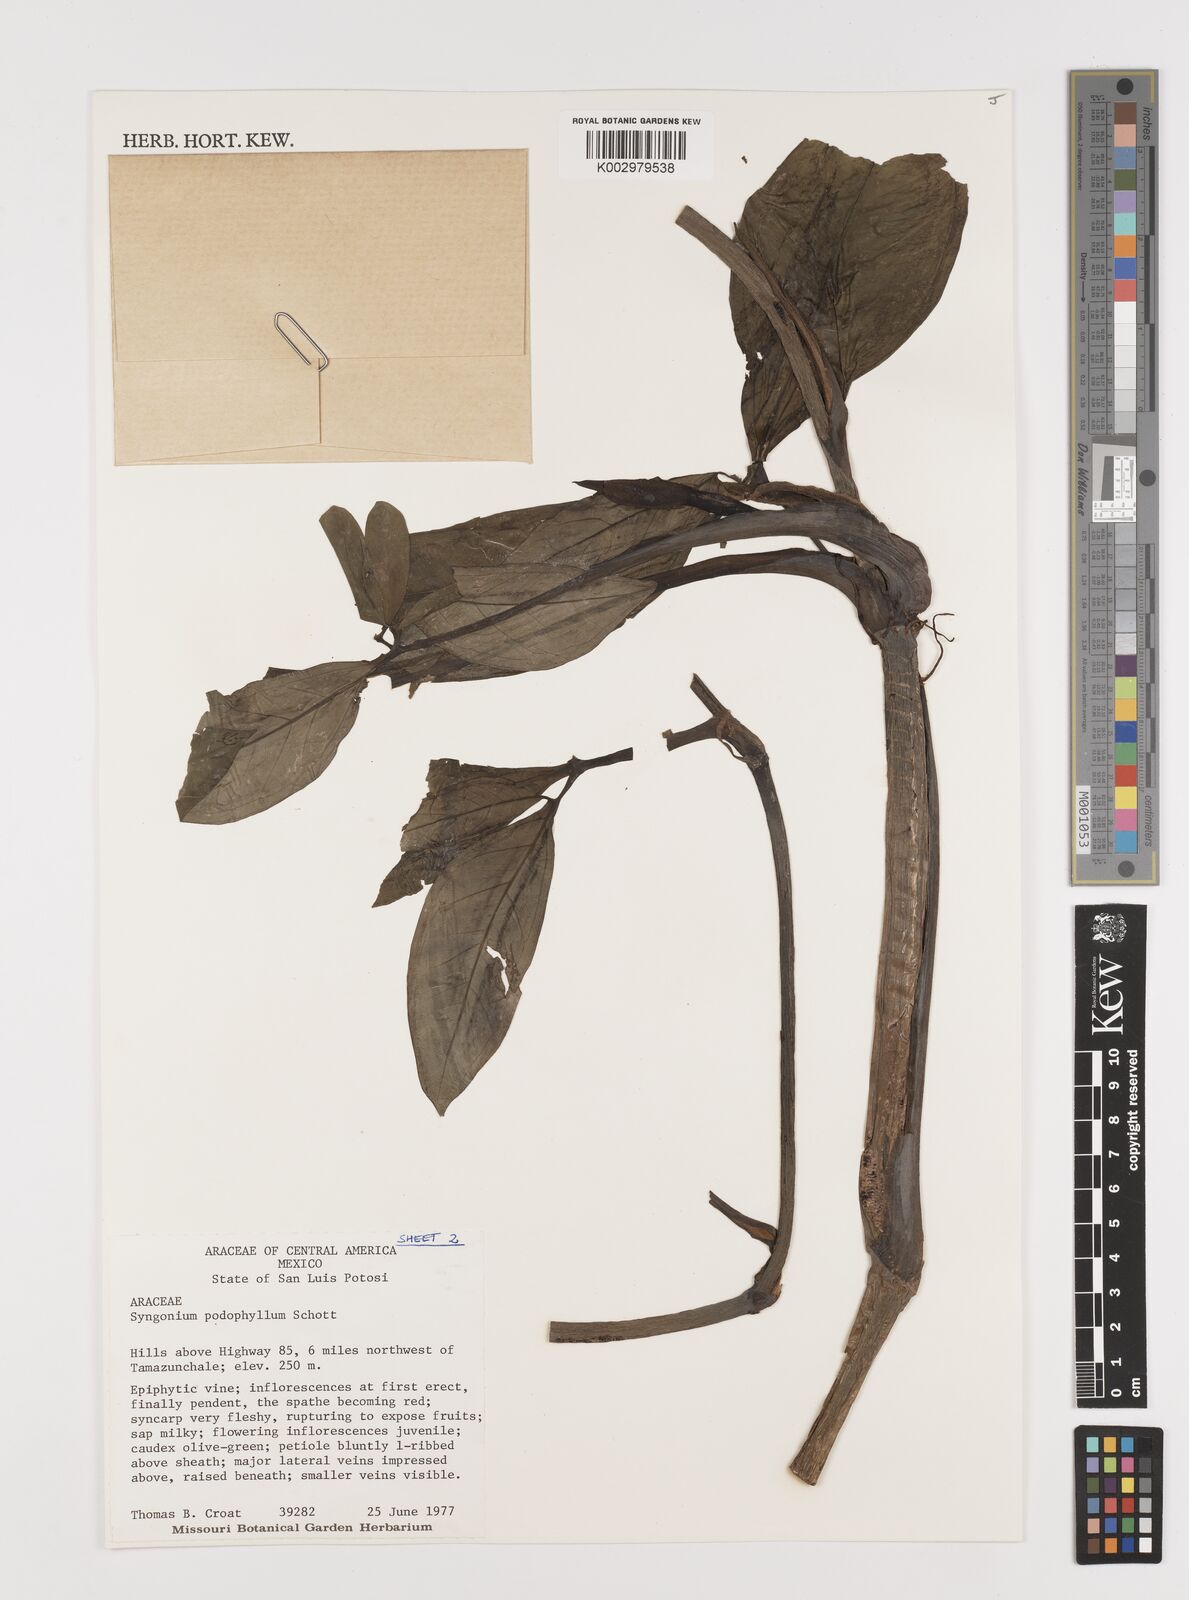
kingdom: Plantae
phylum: Tracheophyta
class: Liliopsida
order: Alismatales
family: Araceae
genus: Syngonium
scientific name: Syngonium podophyllum
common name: American evergreen
